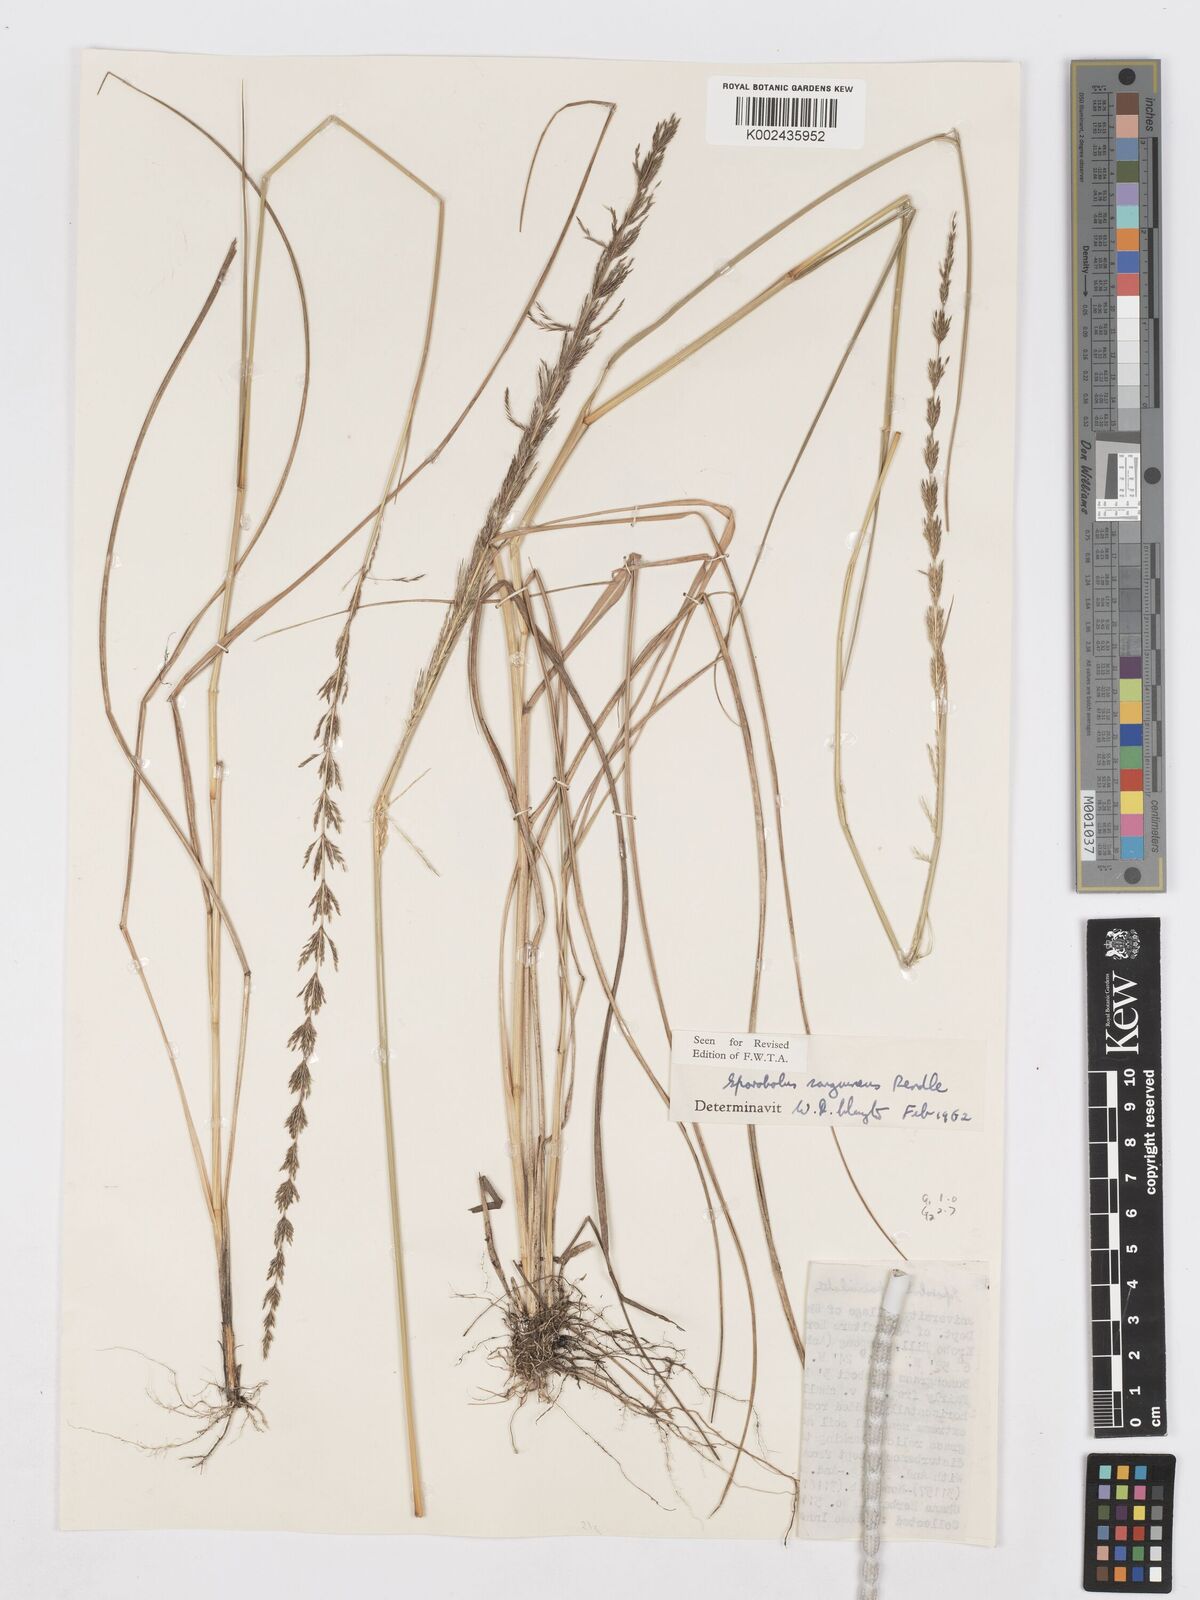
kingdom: Plantae
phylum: Tracheophyta
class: Liliopsida
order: Poales
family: Poaceae
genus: Sporobolus
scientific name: Sporobolus sanguineus
